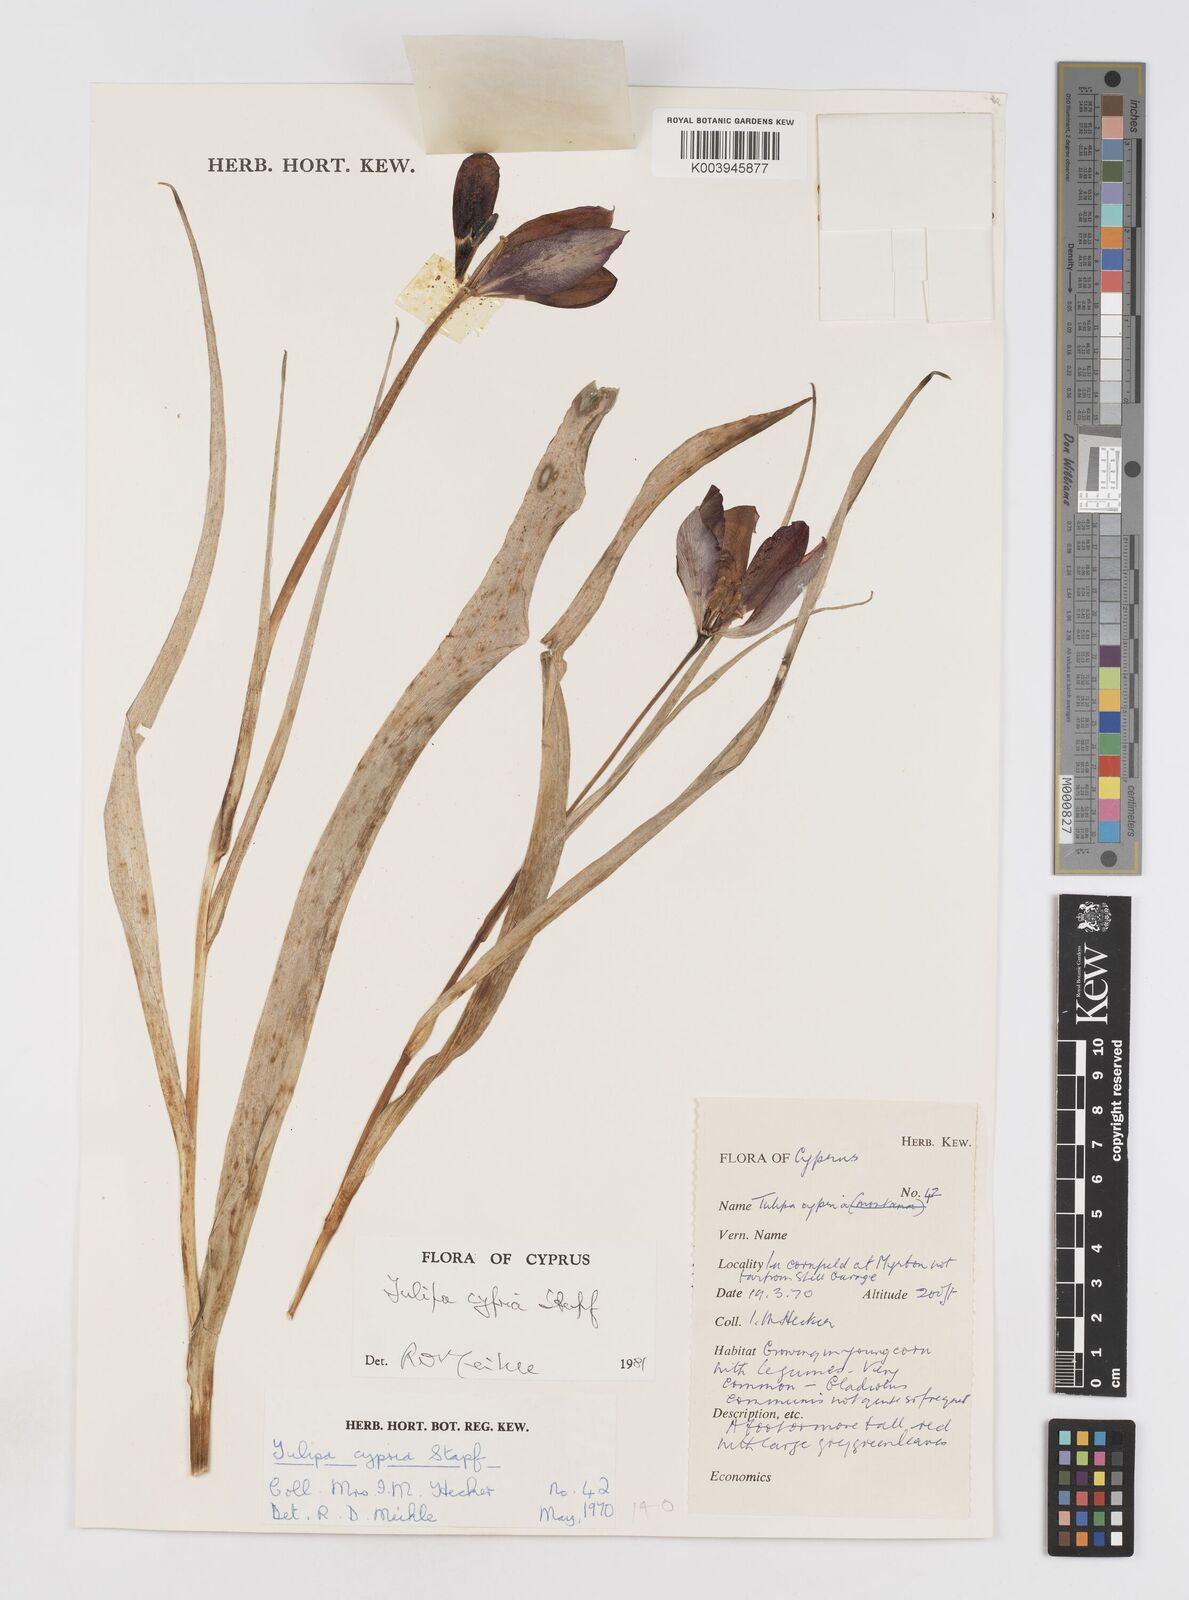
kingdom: Plantae
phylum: Tracheophyta
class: Liliopsida
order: Liliales
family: Liliaceae
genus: Tulipa
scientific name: Tulipa cypria
